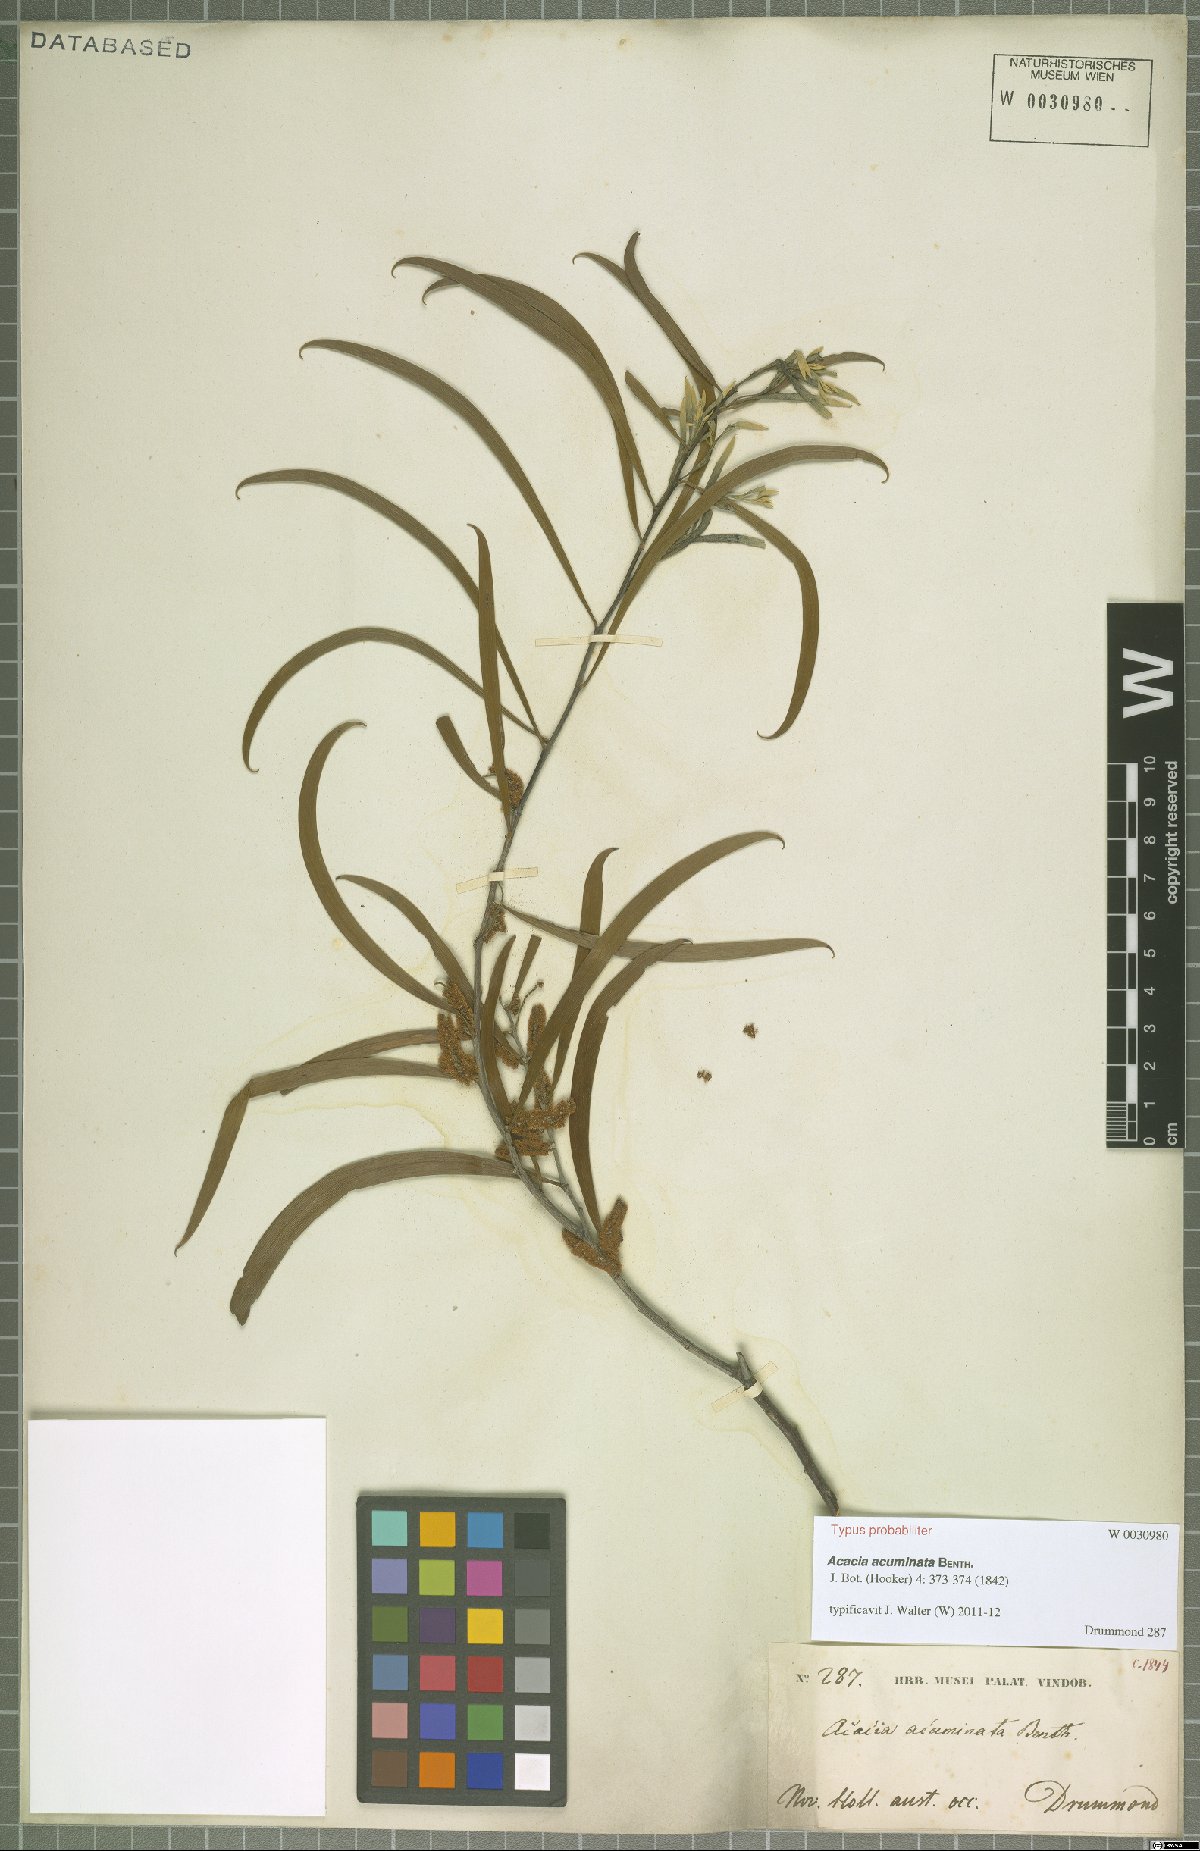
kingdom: Plantae
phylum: Tracheophyta
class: Magnoliopsida
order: Fabales
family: Fabaceae
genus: Acacia
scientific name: Acacia acuminata
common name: Jam wattle
